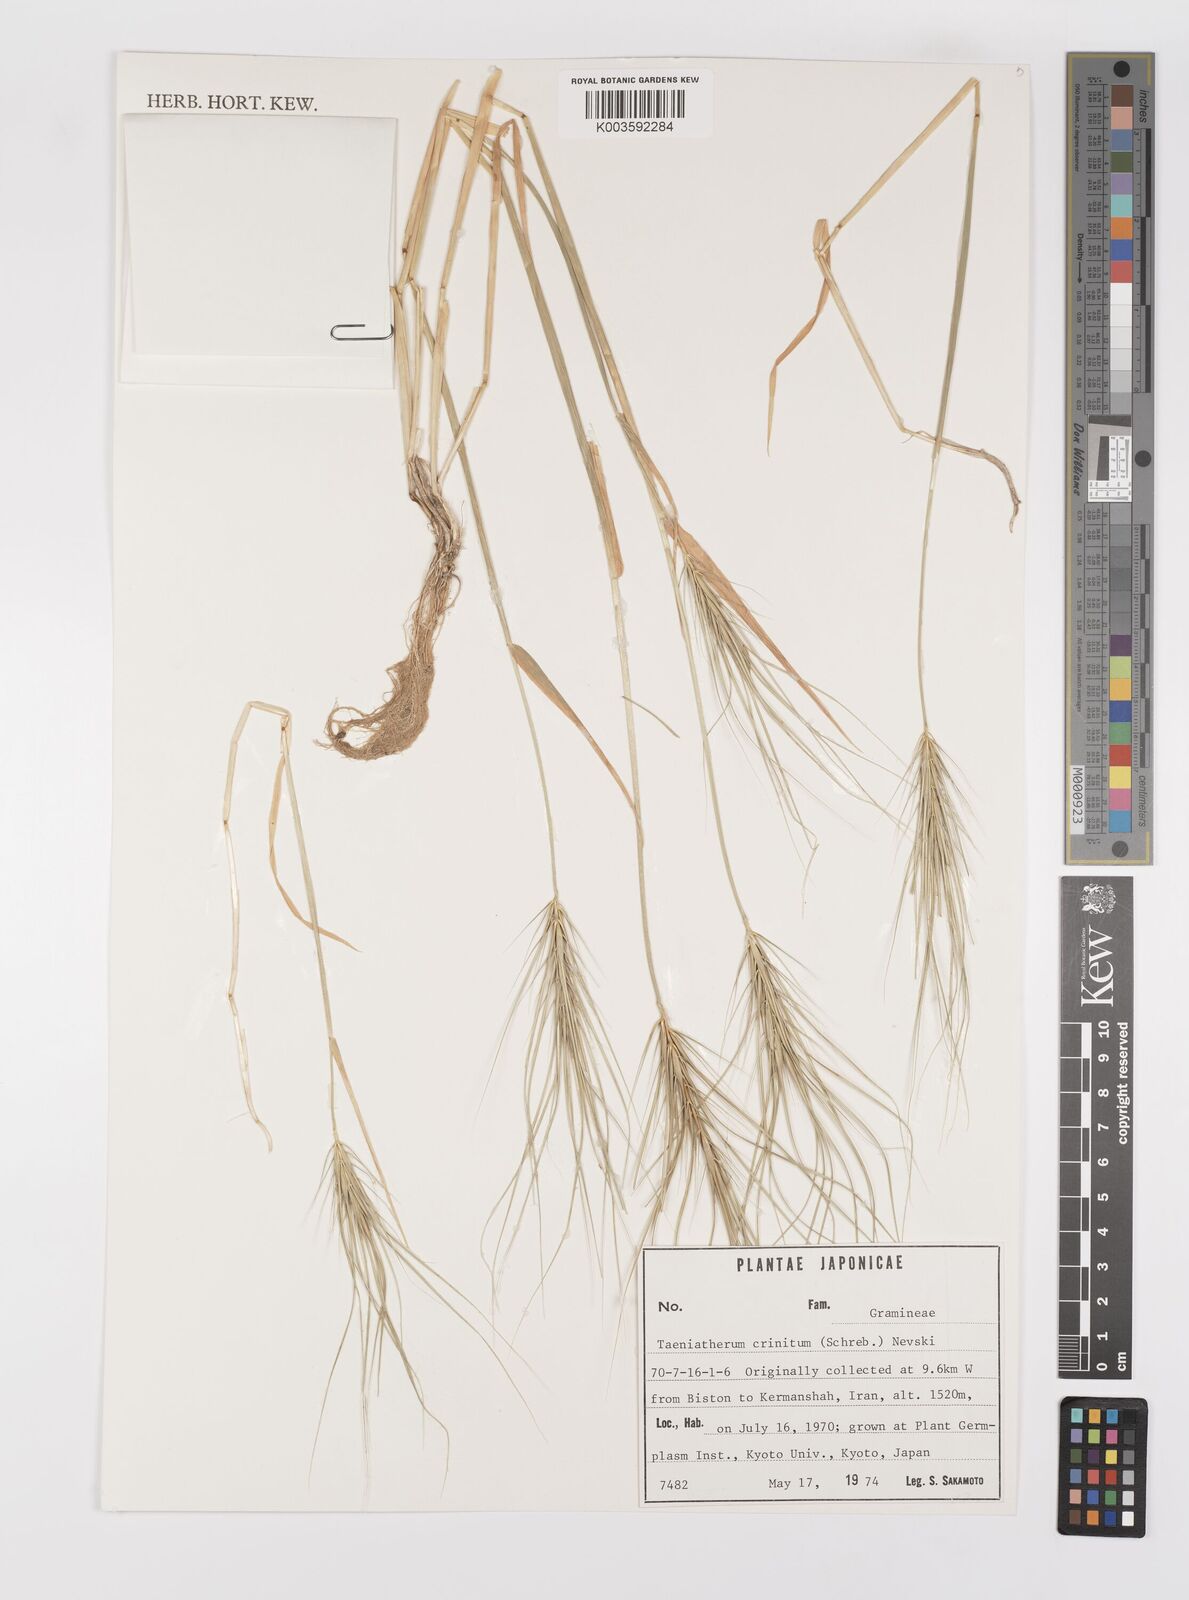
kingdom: Plantae
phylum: Tracheophyta
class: Liliopsida
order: Poales
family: Poaceae
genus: Taeniatherum
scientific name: Taeniatherum caput-medusae
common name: Medusahead
